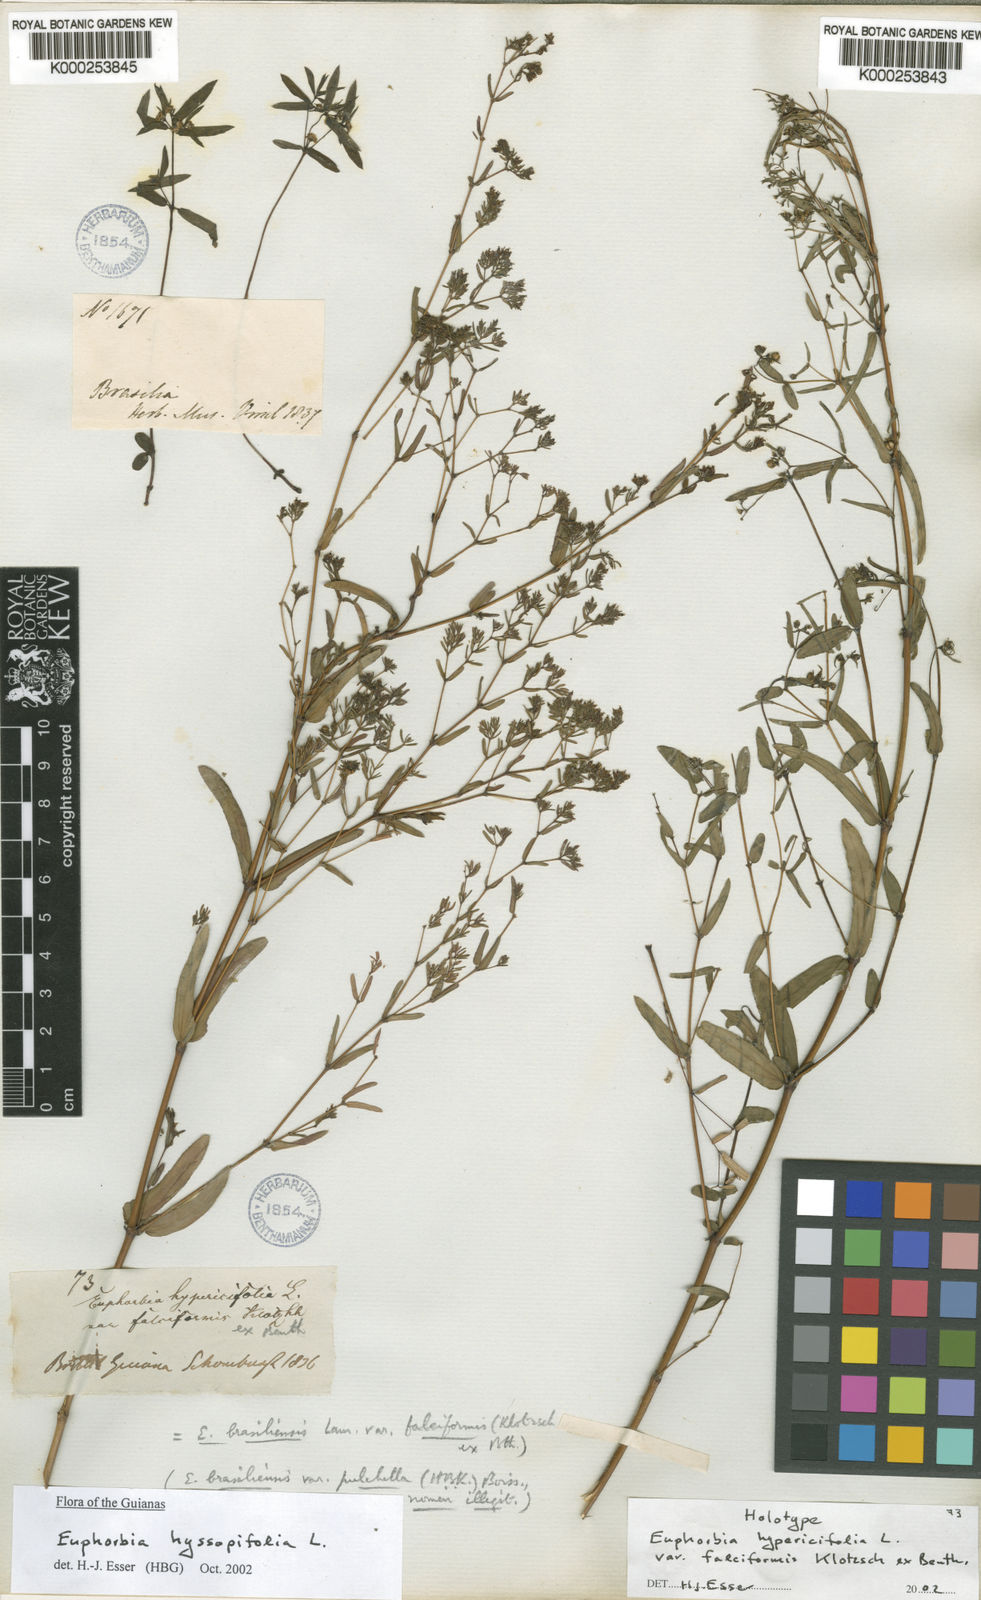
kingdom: Plantae
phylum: Tracheophyta
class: Magnoliopsida
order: Malpighiales
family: Euphorbiaceae
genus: Euphorbia
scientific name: Euphorbia hyssopifolia
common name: Hyssopleaf sandmat
